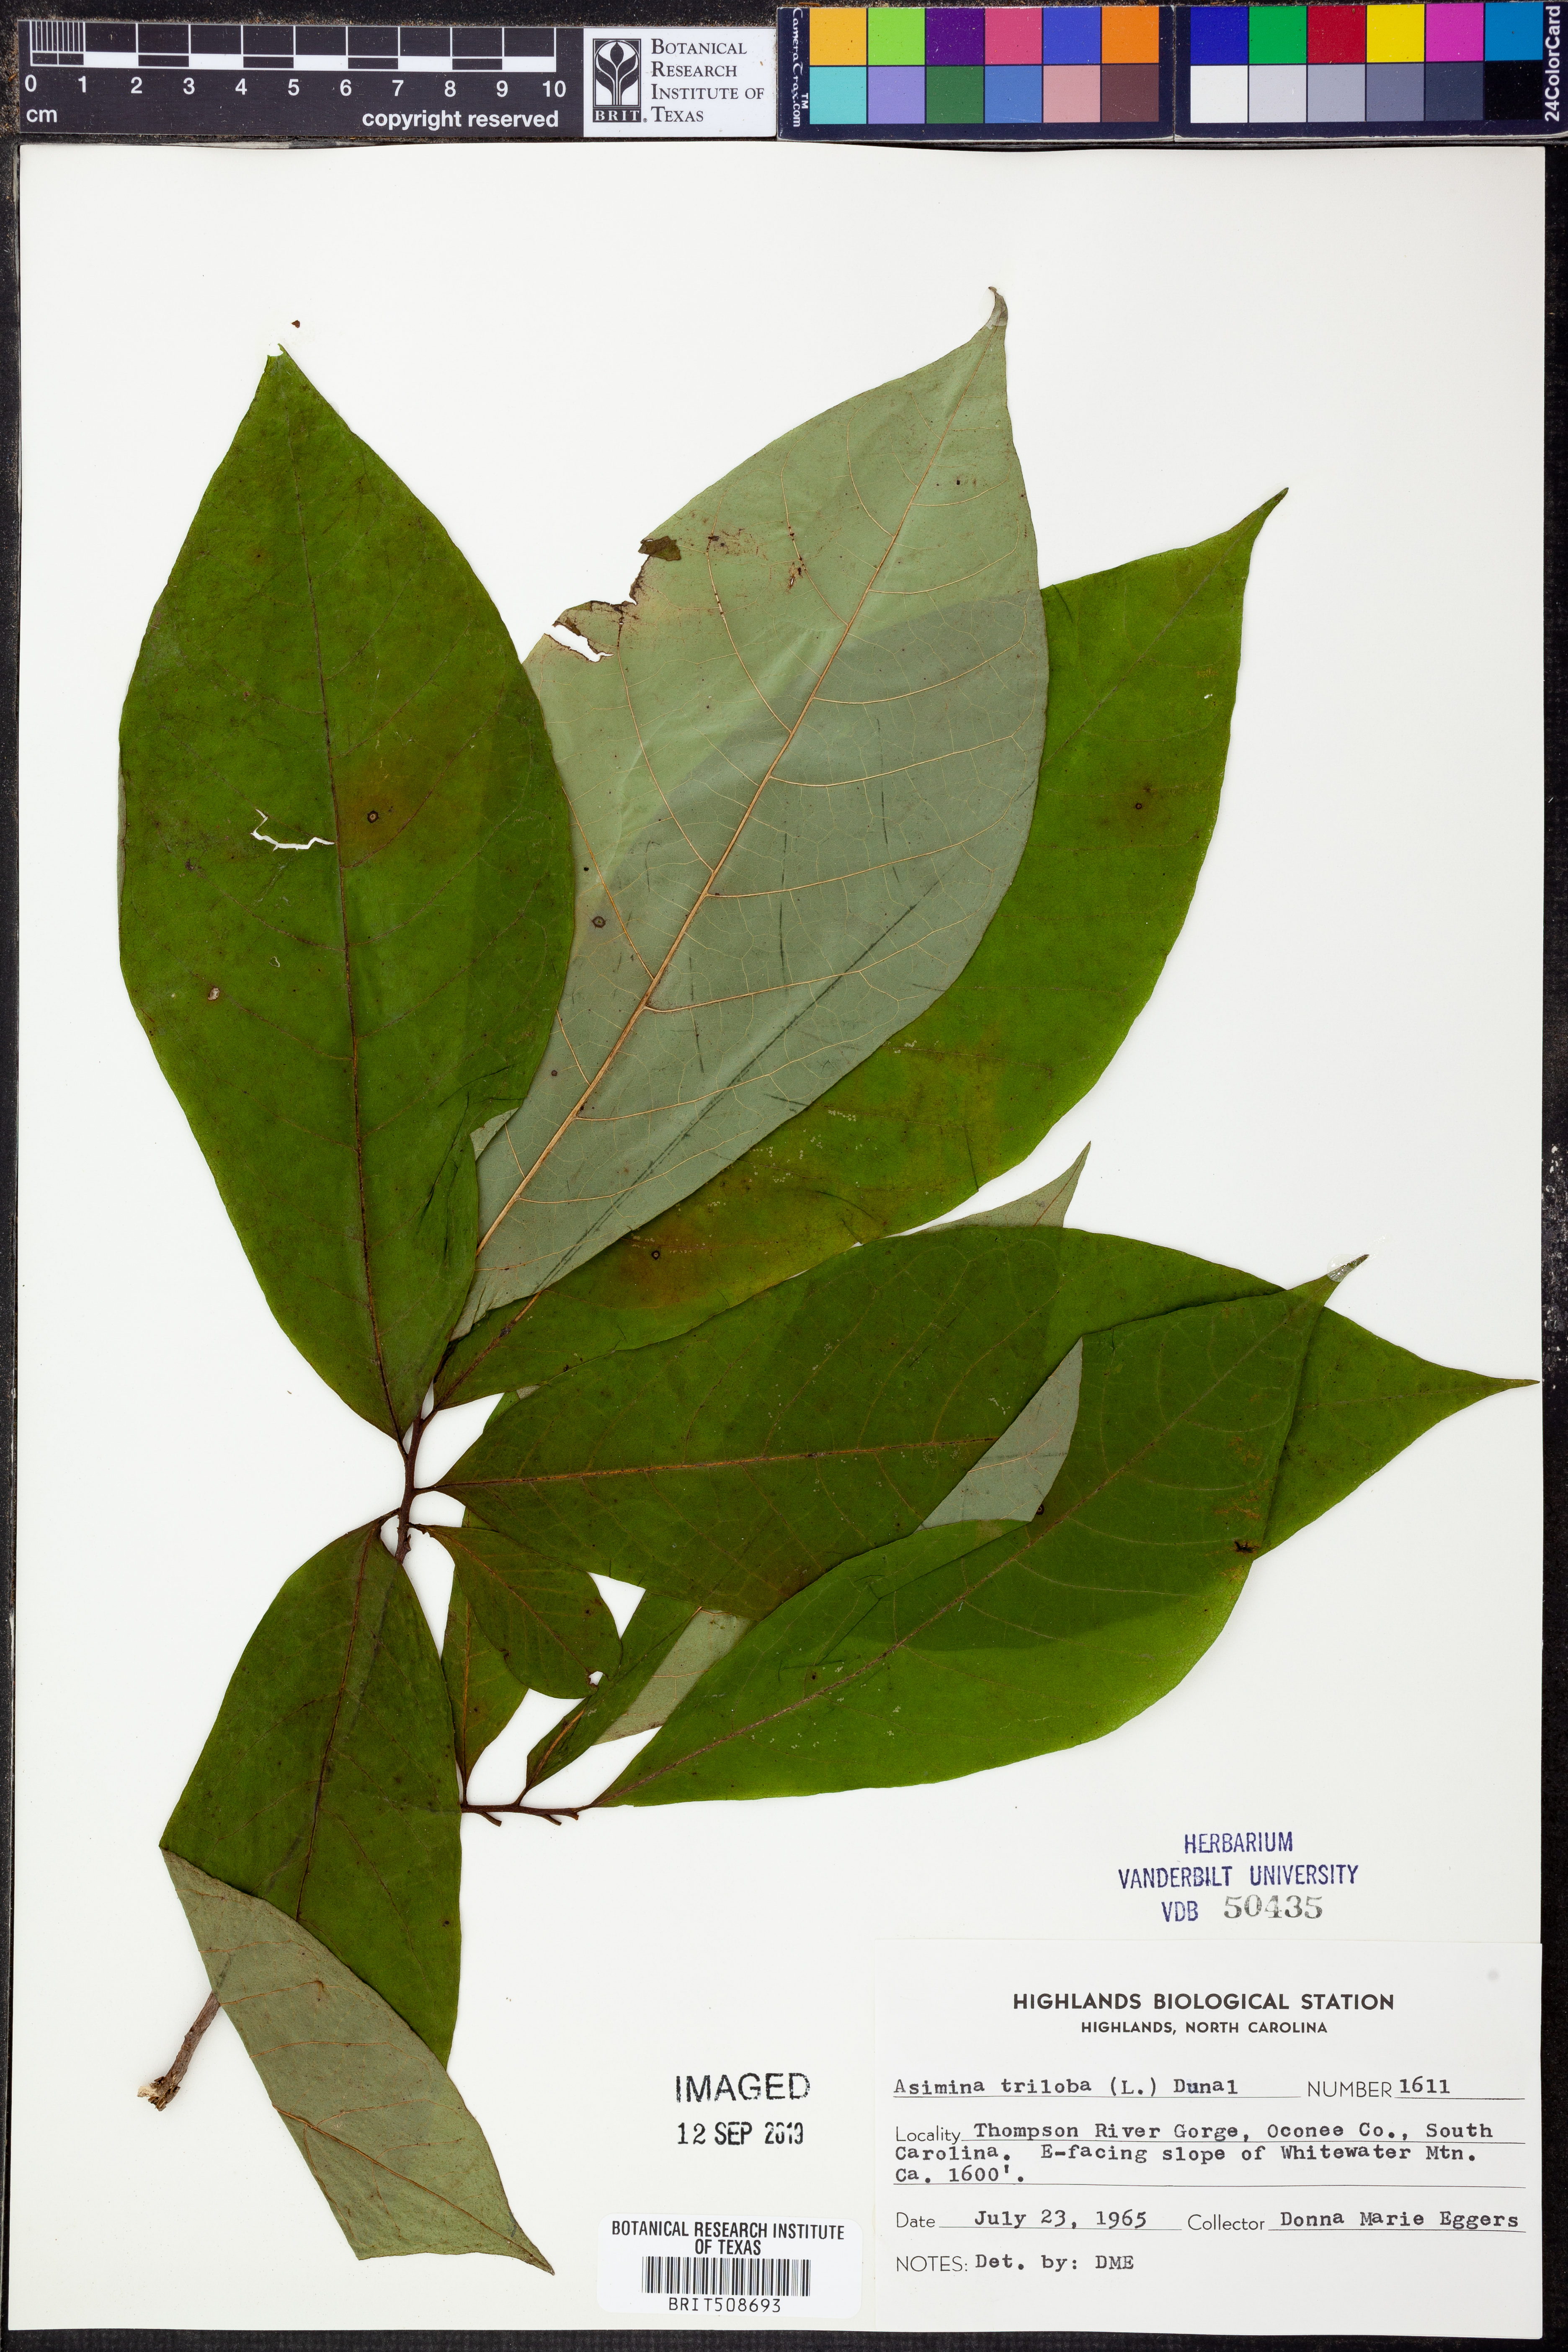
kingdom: Plantae
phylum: Tracheophyta
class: Magnoliopsida
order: Magnoliales
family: Annonaceae
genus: Asimina
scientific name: Asimina triloba
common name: Dog-banana
